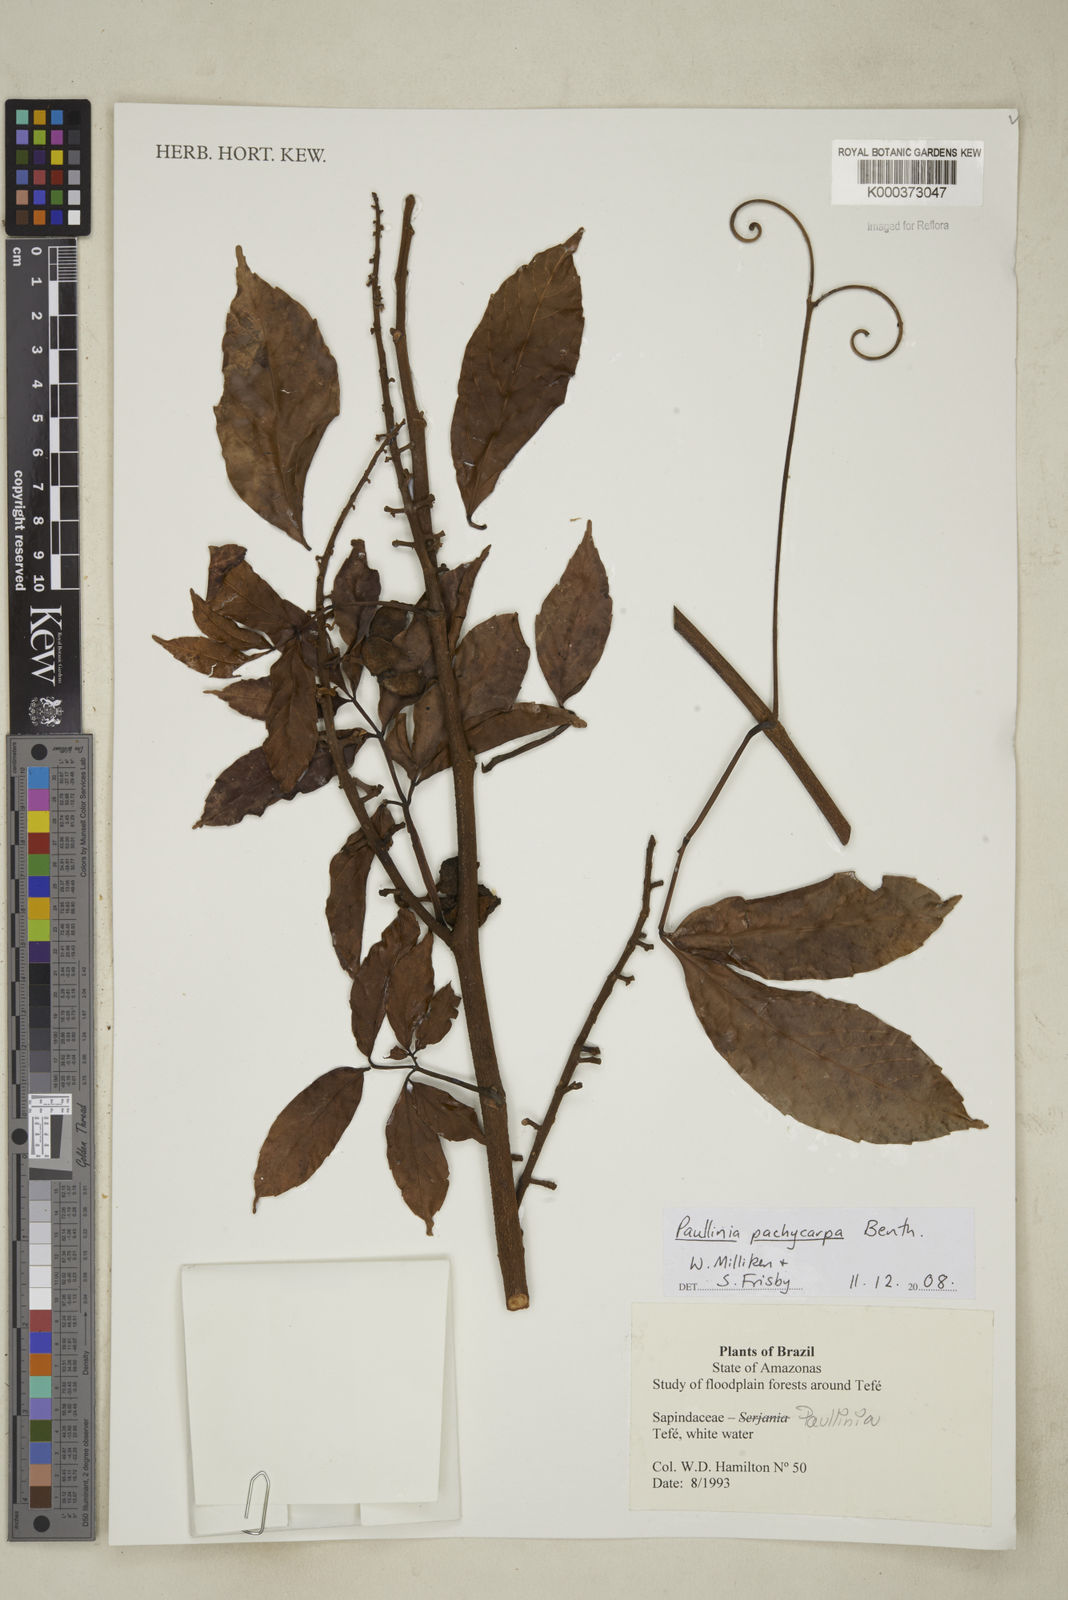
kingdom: Plantae
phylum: Tracheophyta
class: Magnoliopsida
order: Sapindales
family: Sapindaceae
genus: Paullinia
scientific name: Paullinia pachycarpa
